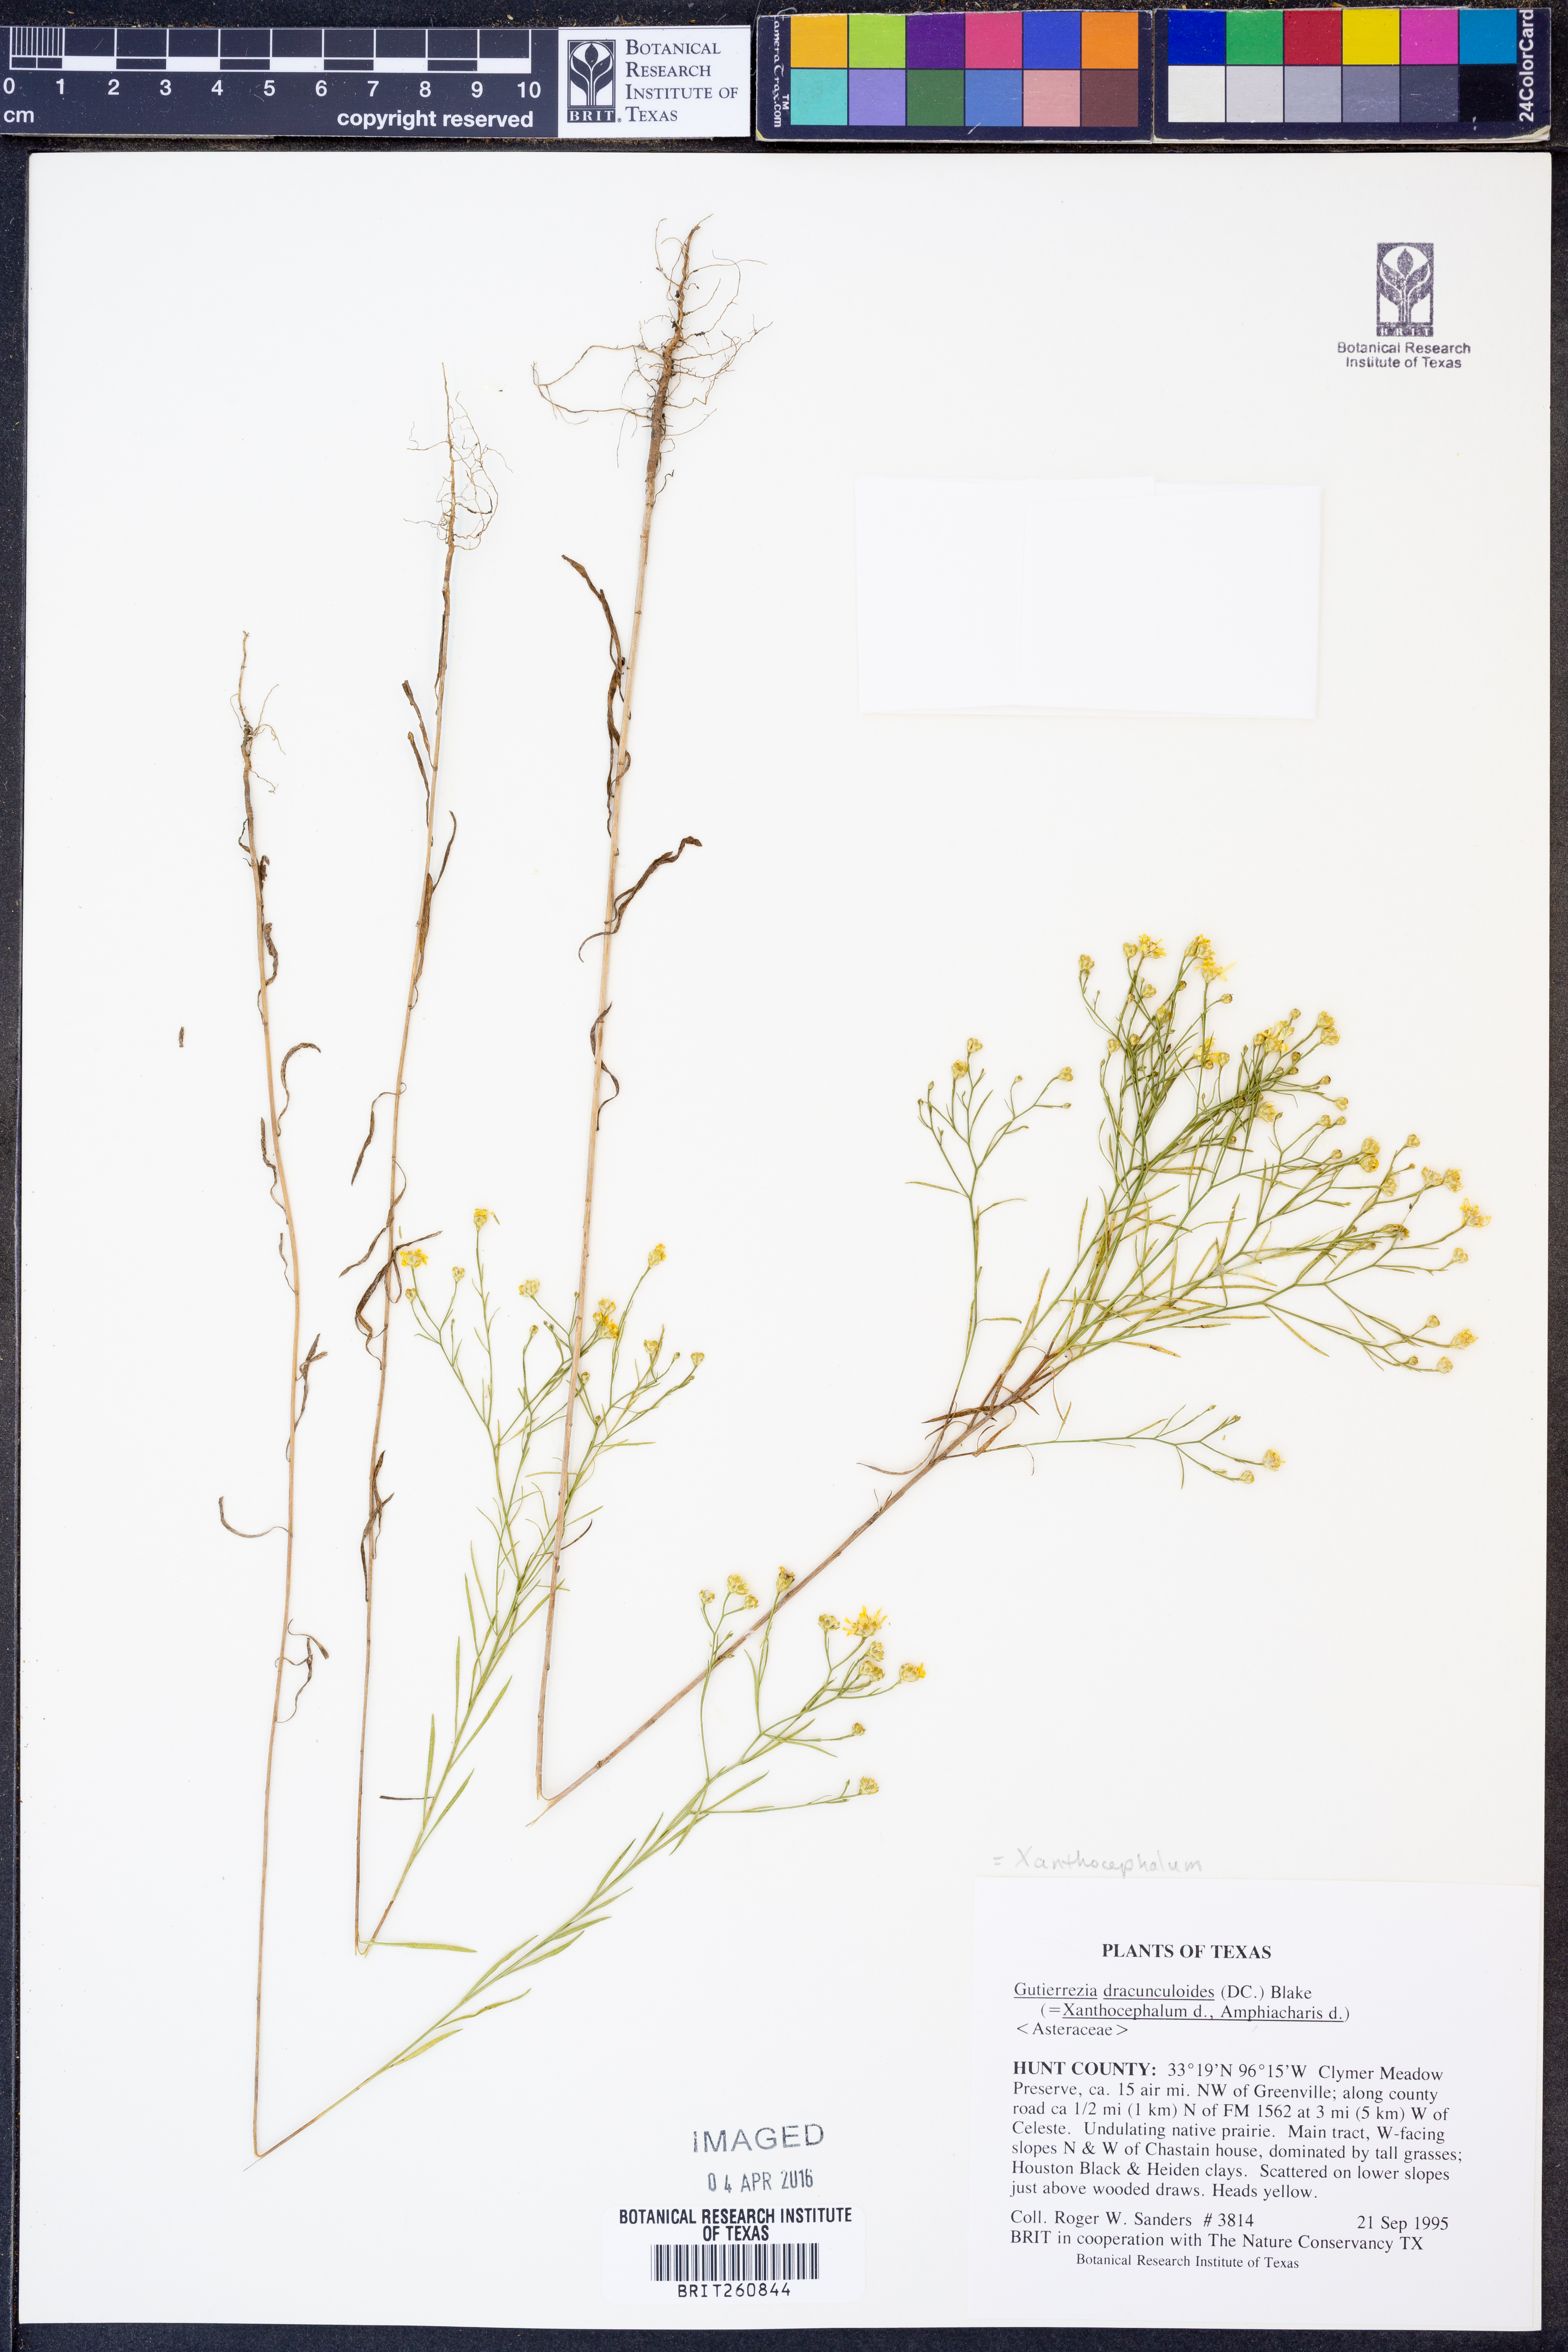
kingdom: Plantae
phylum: Tracheophyta
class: Magnoliopsida
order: Asterales
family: Asteraceae
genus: Amphiachyris
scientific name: Amphiachyris dracunculoides
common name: Broomweed
